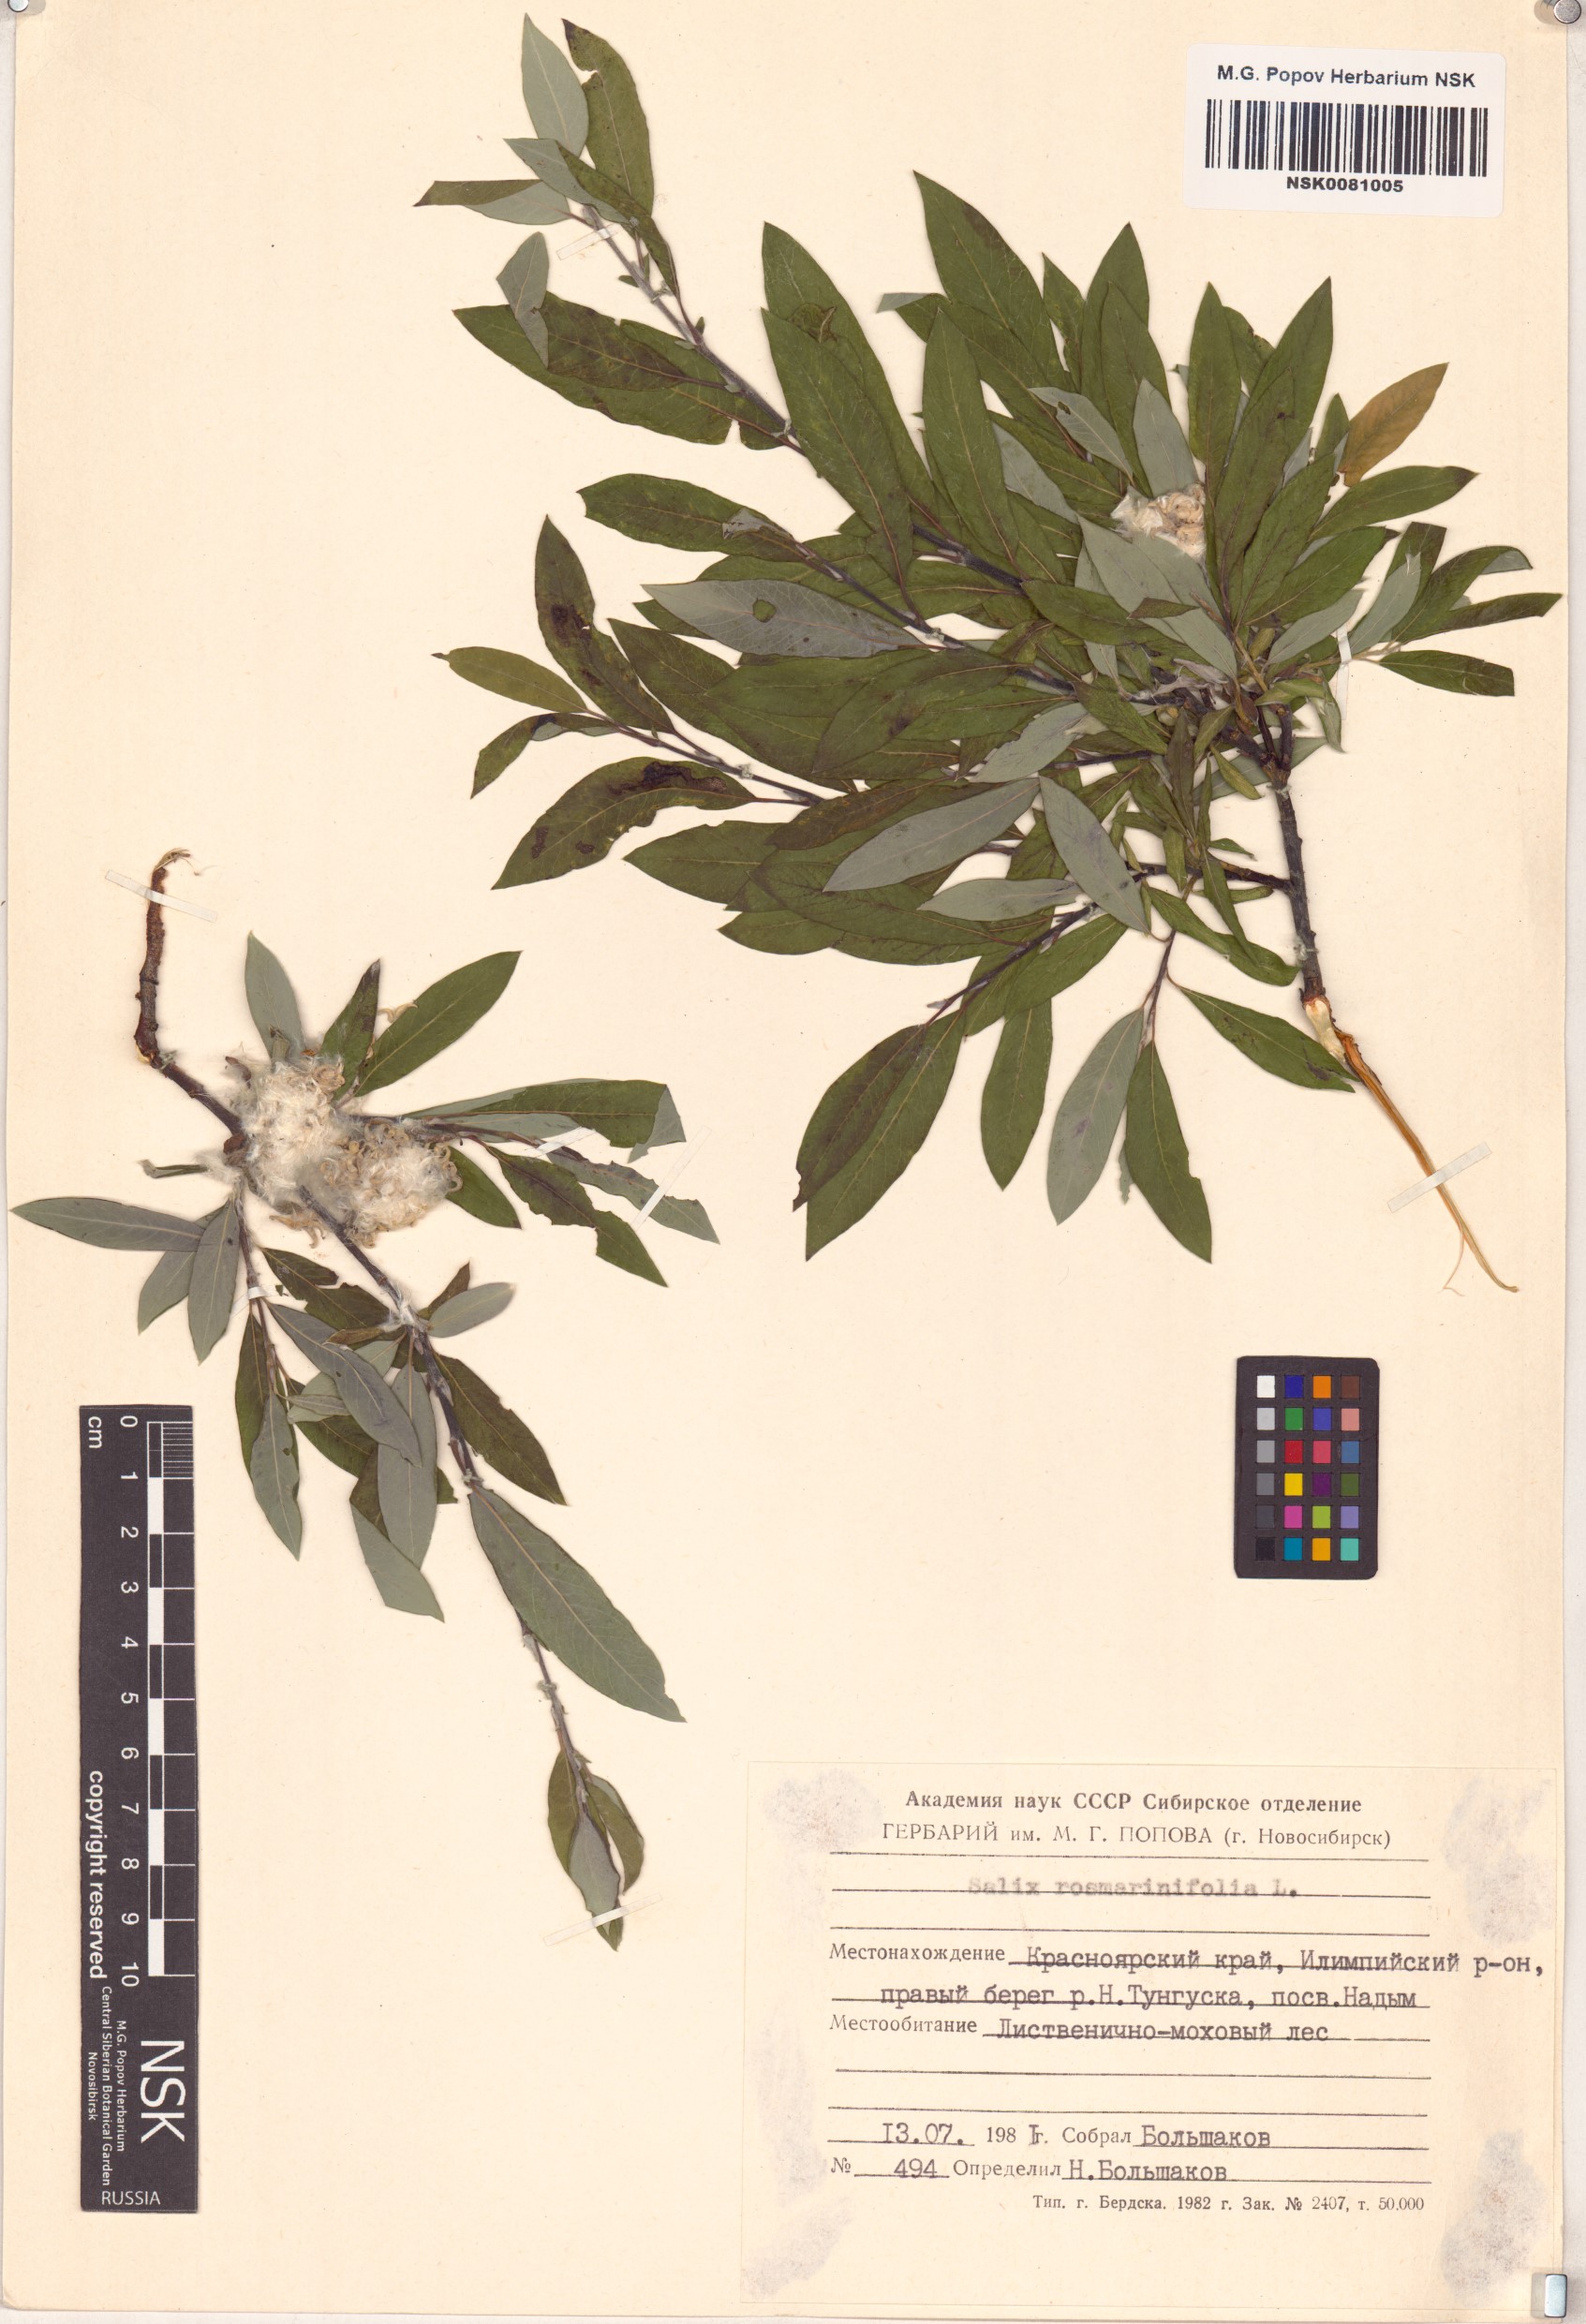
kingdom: Plantae
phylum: Tracheophyta
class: Magnoliopsida
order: Malpighiales
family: Salicaceae
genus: Salix
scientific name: Salix rosmarinifolia
